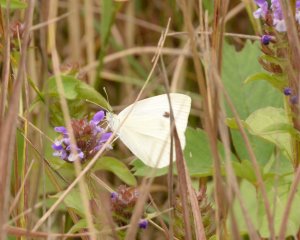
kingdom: Animalia
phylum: Arthropoda
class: Insecta
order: Lepidoptera
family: Pieridae
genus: Pieris
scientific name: Pieris rapae
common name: Cabbage White
